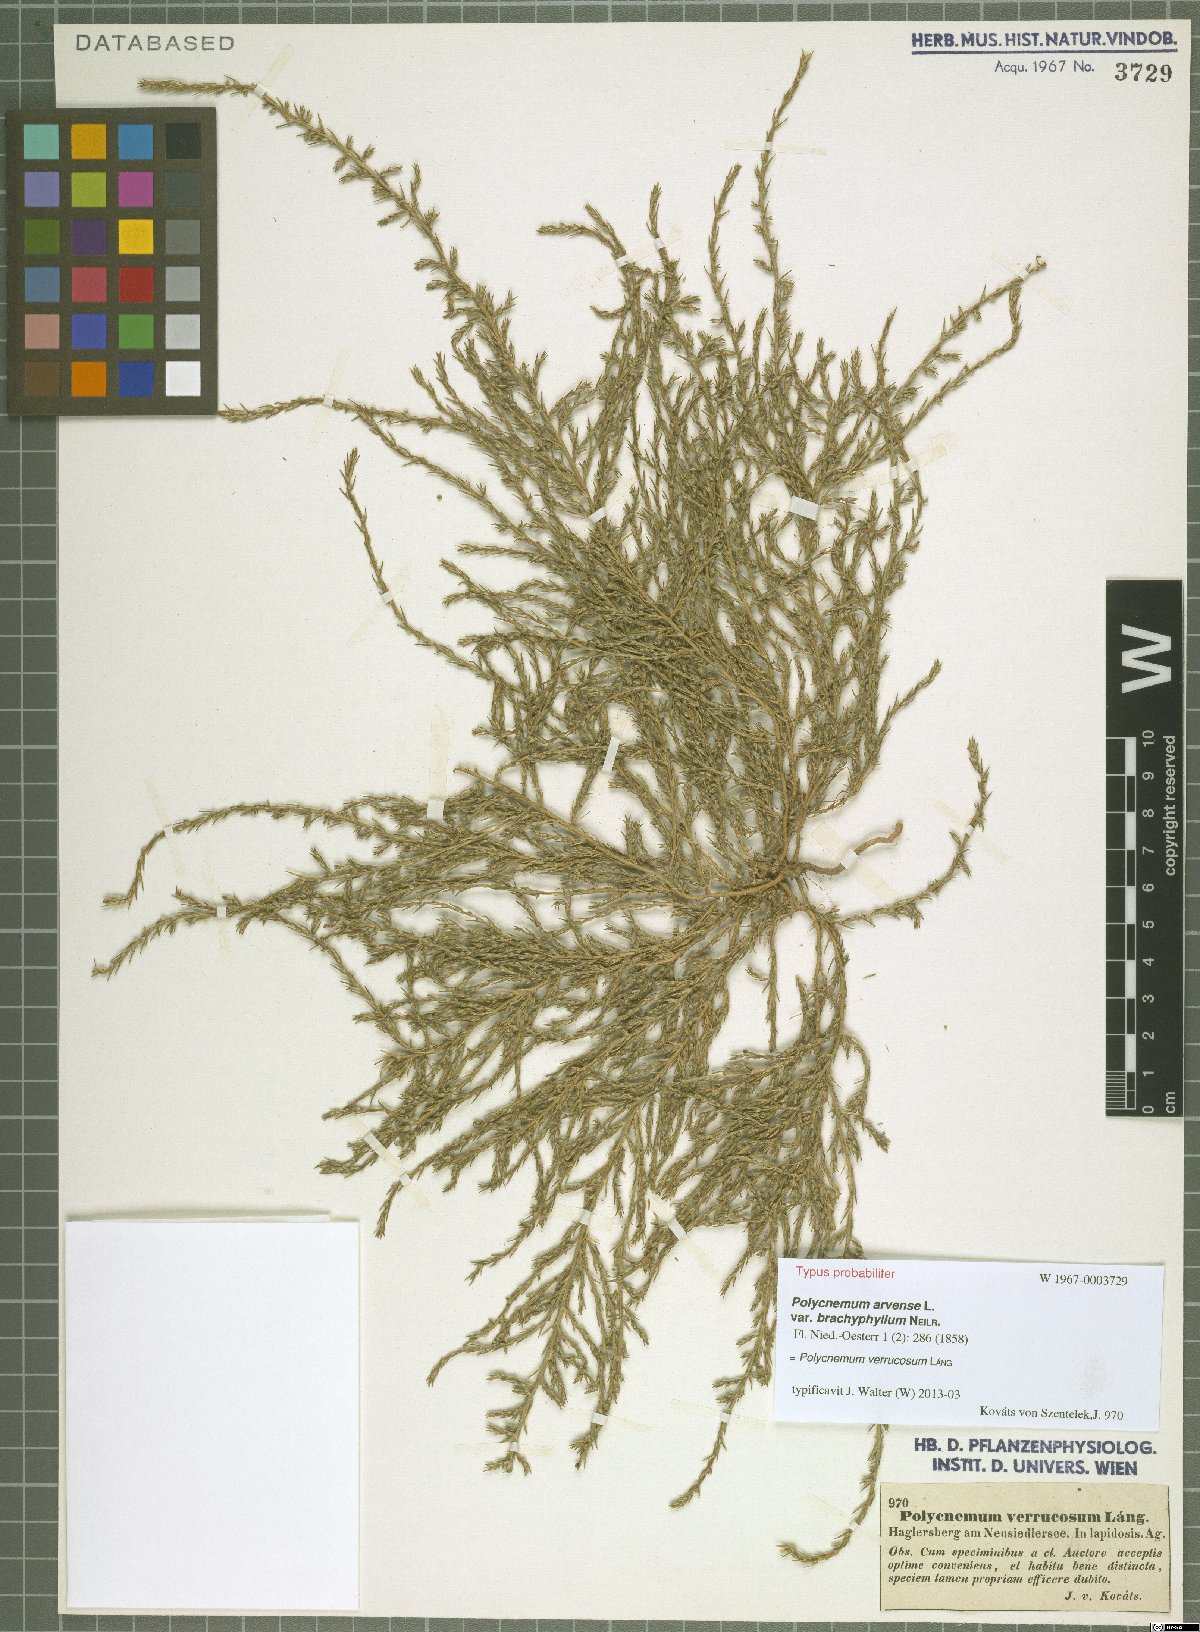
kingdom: Plantae
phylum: Tracheophyta
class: Magnoliopsida
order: Caryophyllales
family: Amaranthaceae
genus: Polycnemum
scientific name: Polycnemum verrucosum
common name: Warty needleleaf
